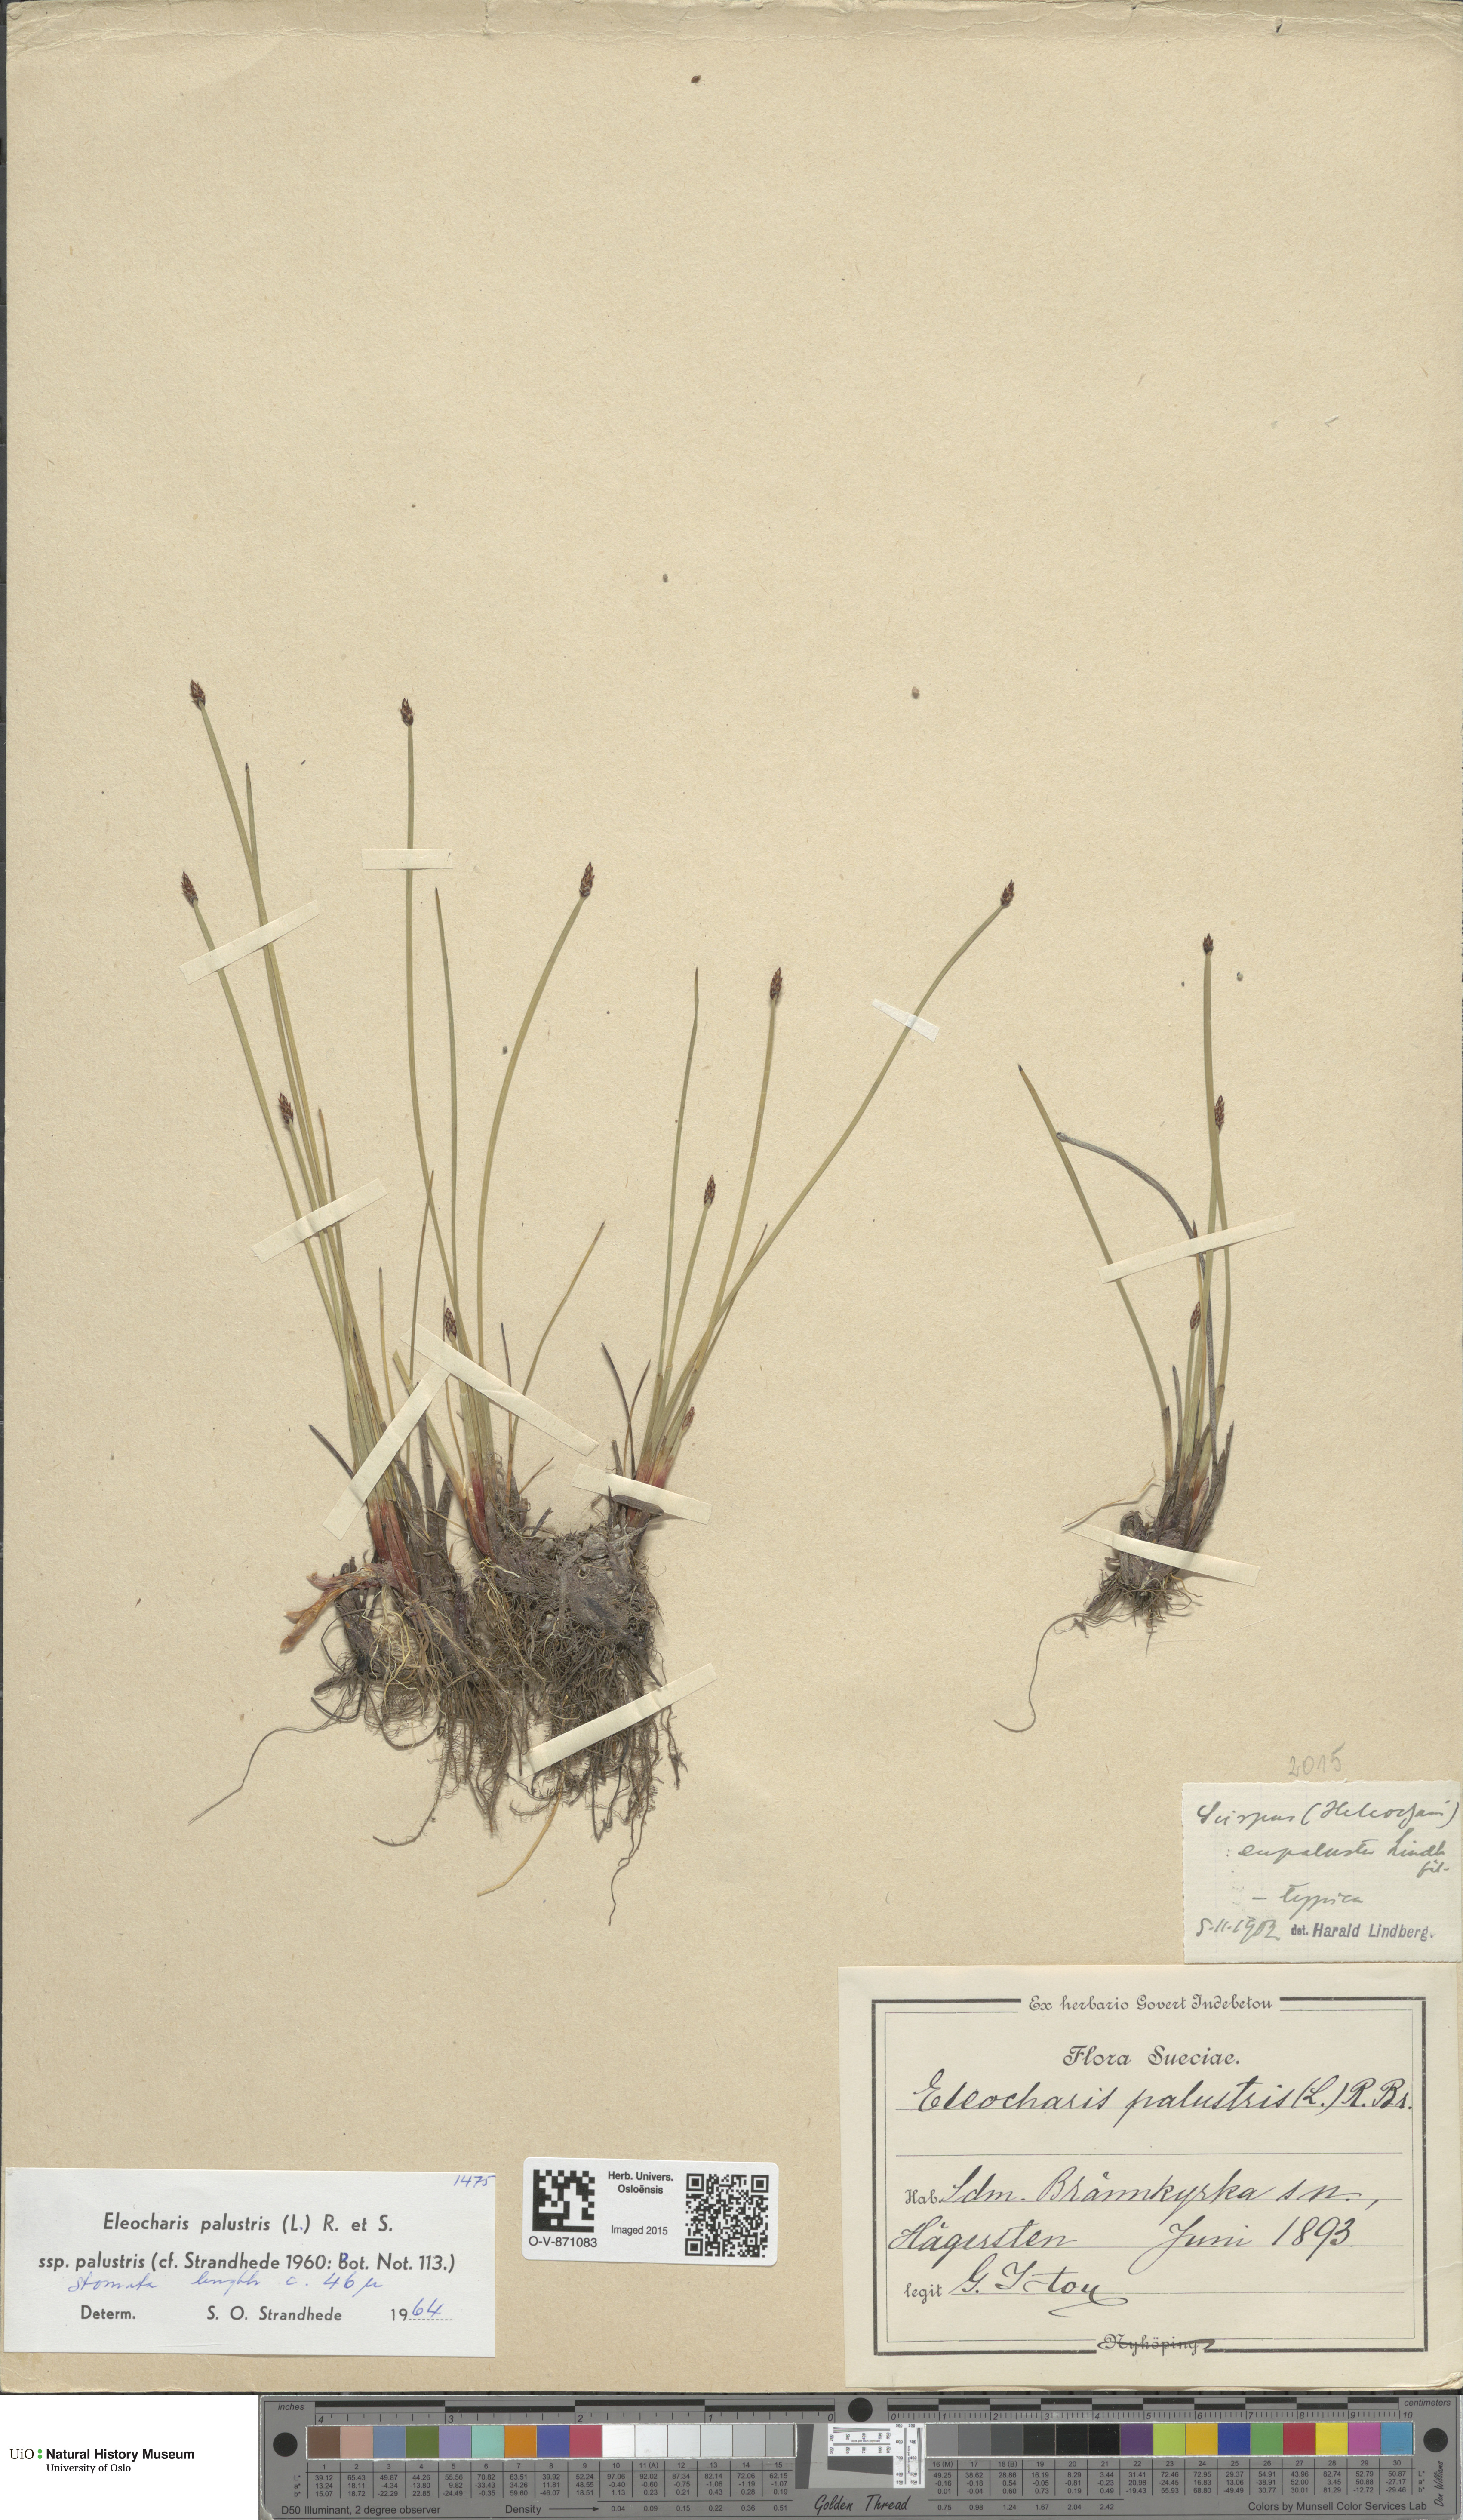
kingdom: Plantae
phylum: Tracheophyta
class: Liliopsida
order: Poales
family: Cyperaceae
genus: Eleocharis
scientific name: Eleocharis palustris
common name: Common spike-rush
